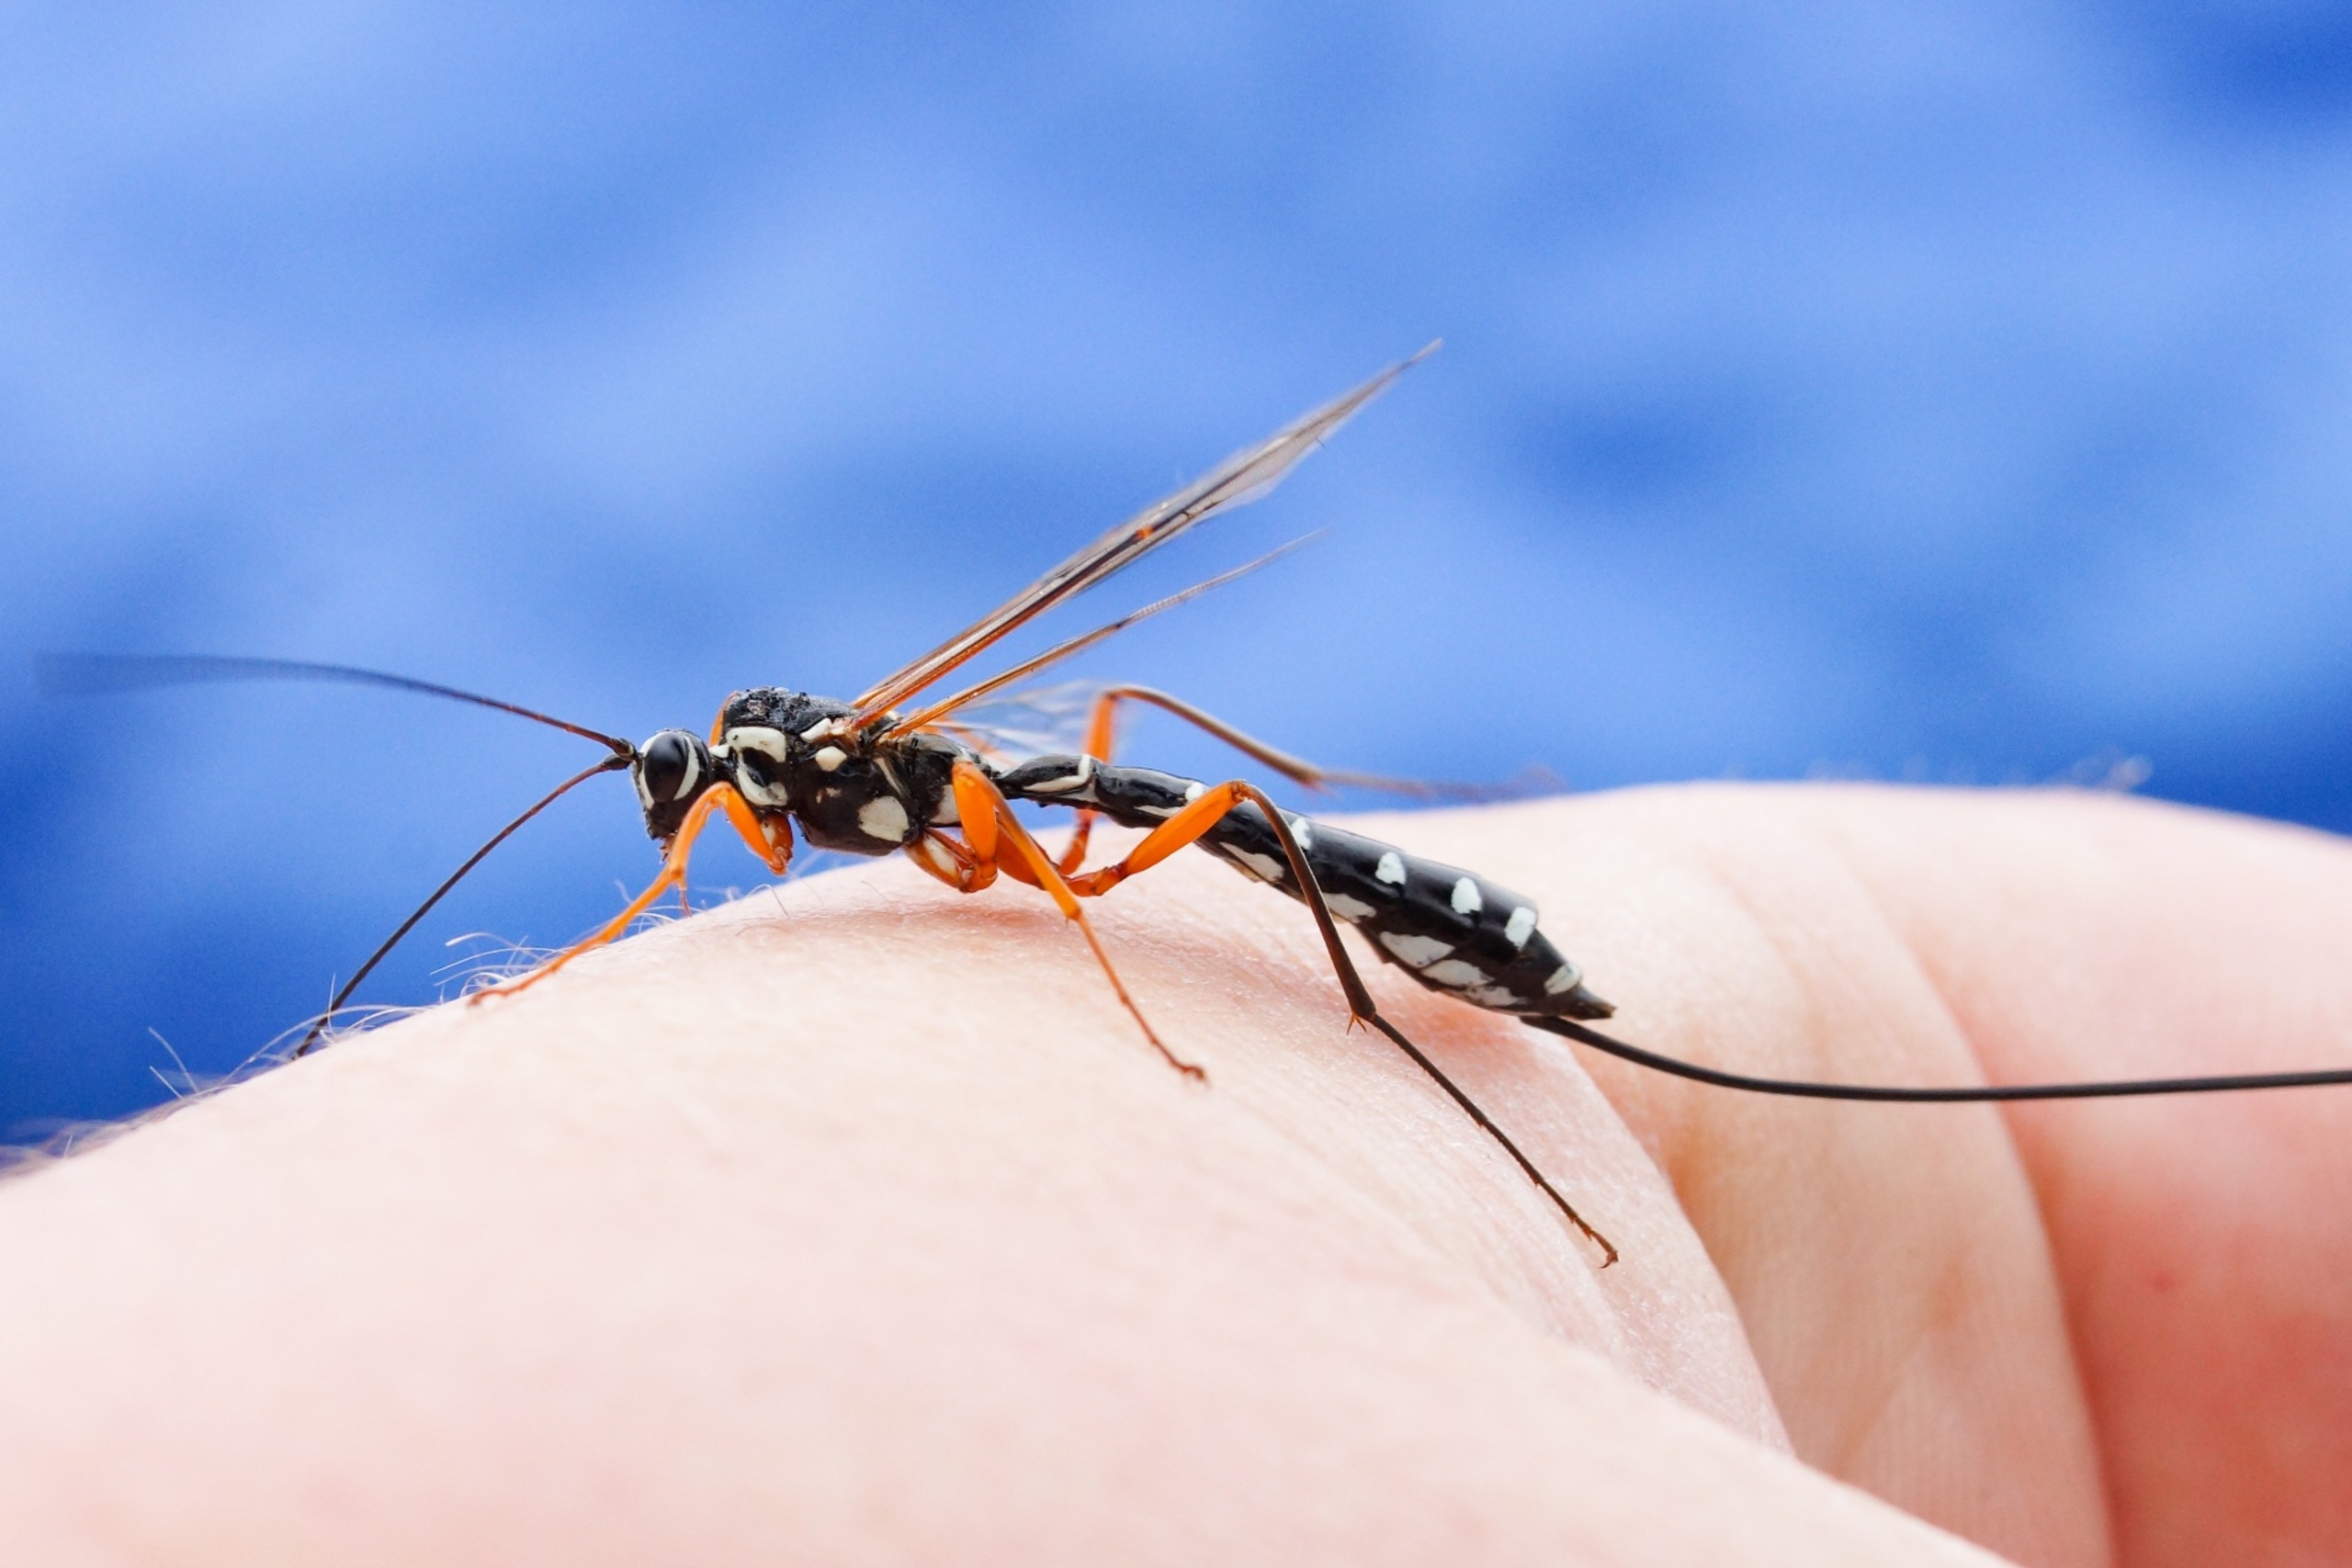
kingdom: Animalia
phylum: Arthropoda
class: Insecta
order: Hymenoptera
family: Ichneumonidae
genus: Rhyssa
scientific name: Rhyssa persuasoria
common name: Sabelhveps
